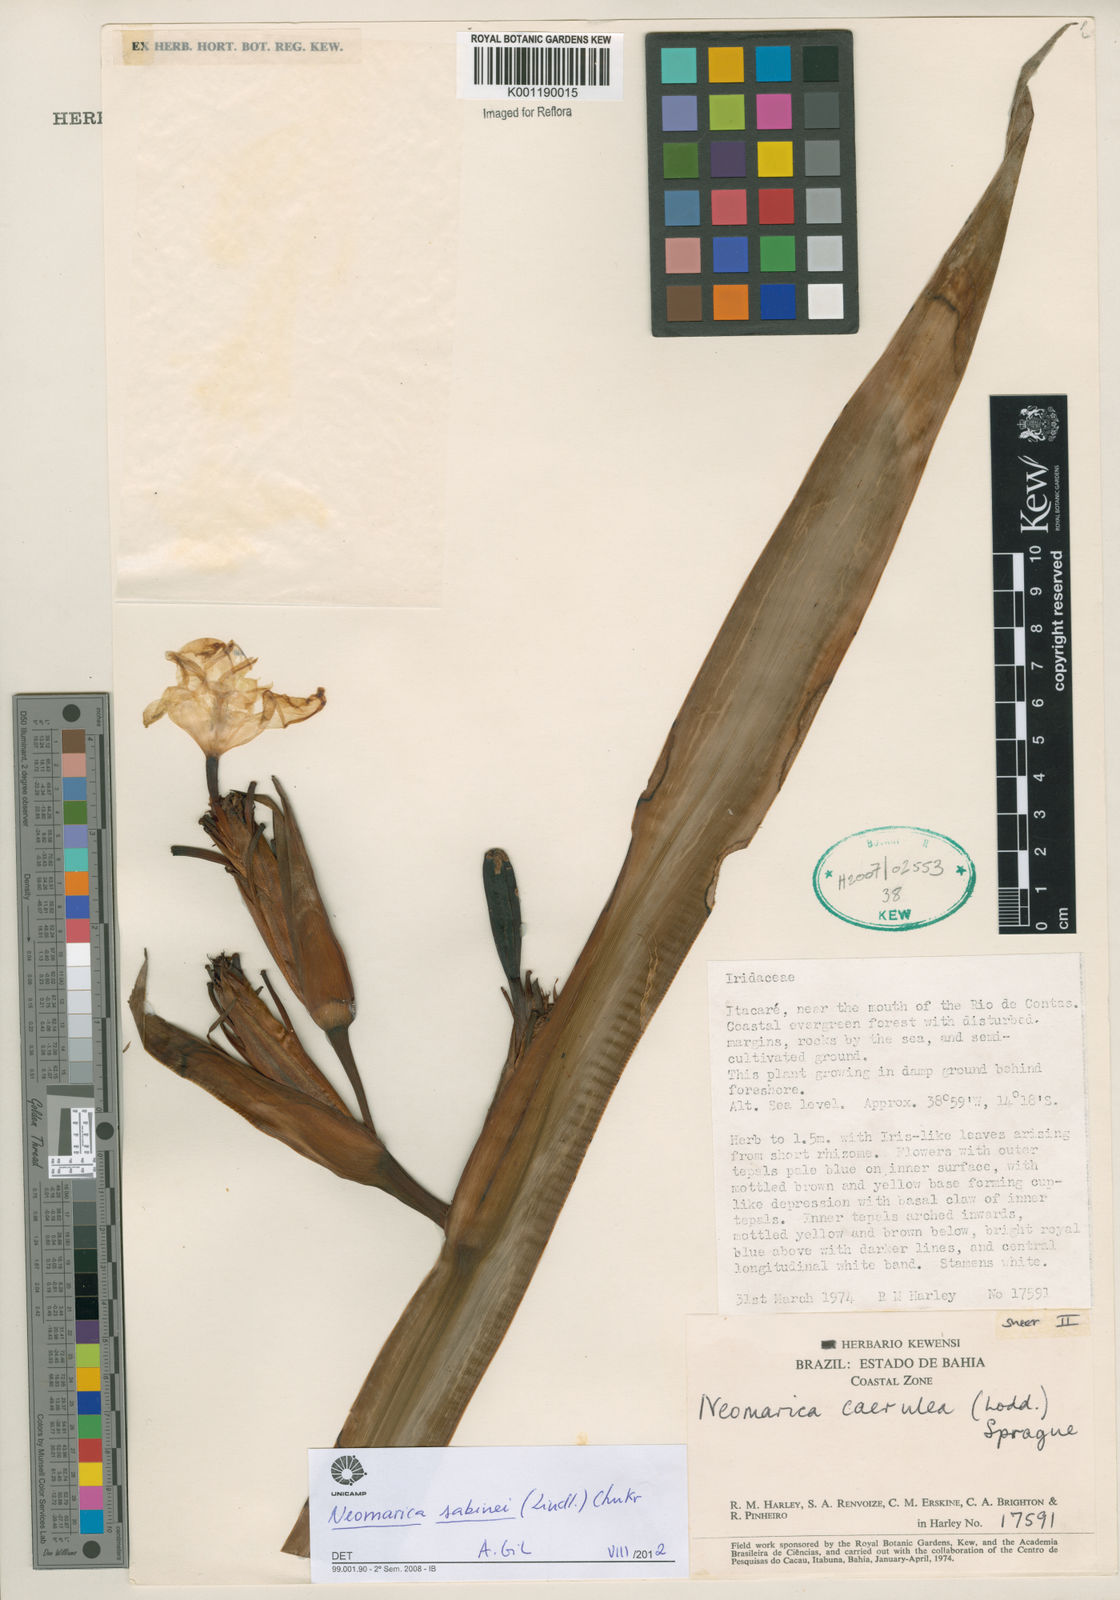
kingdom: Plantae
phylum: Tracheophyta
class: Liliopsida
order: Asparagales
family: Iridaceae
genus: Trimezia
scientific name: Trimezia sabini
